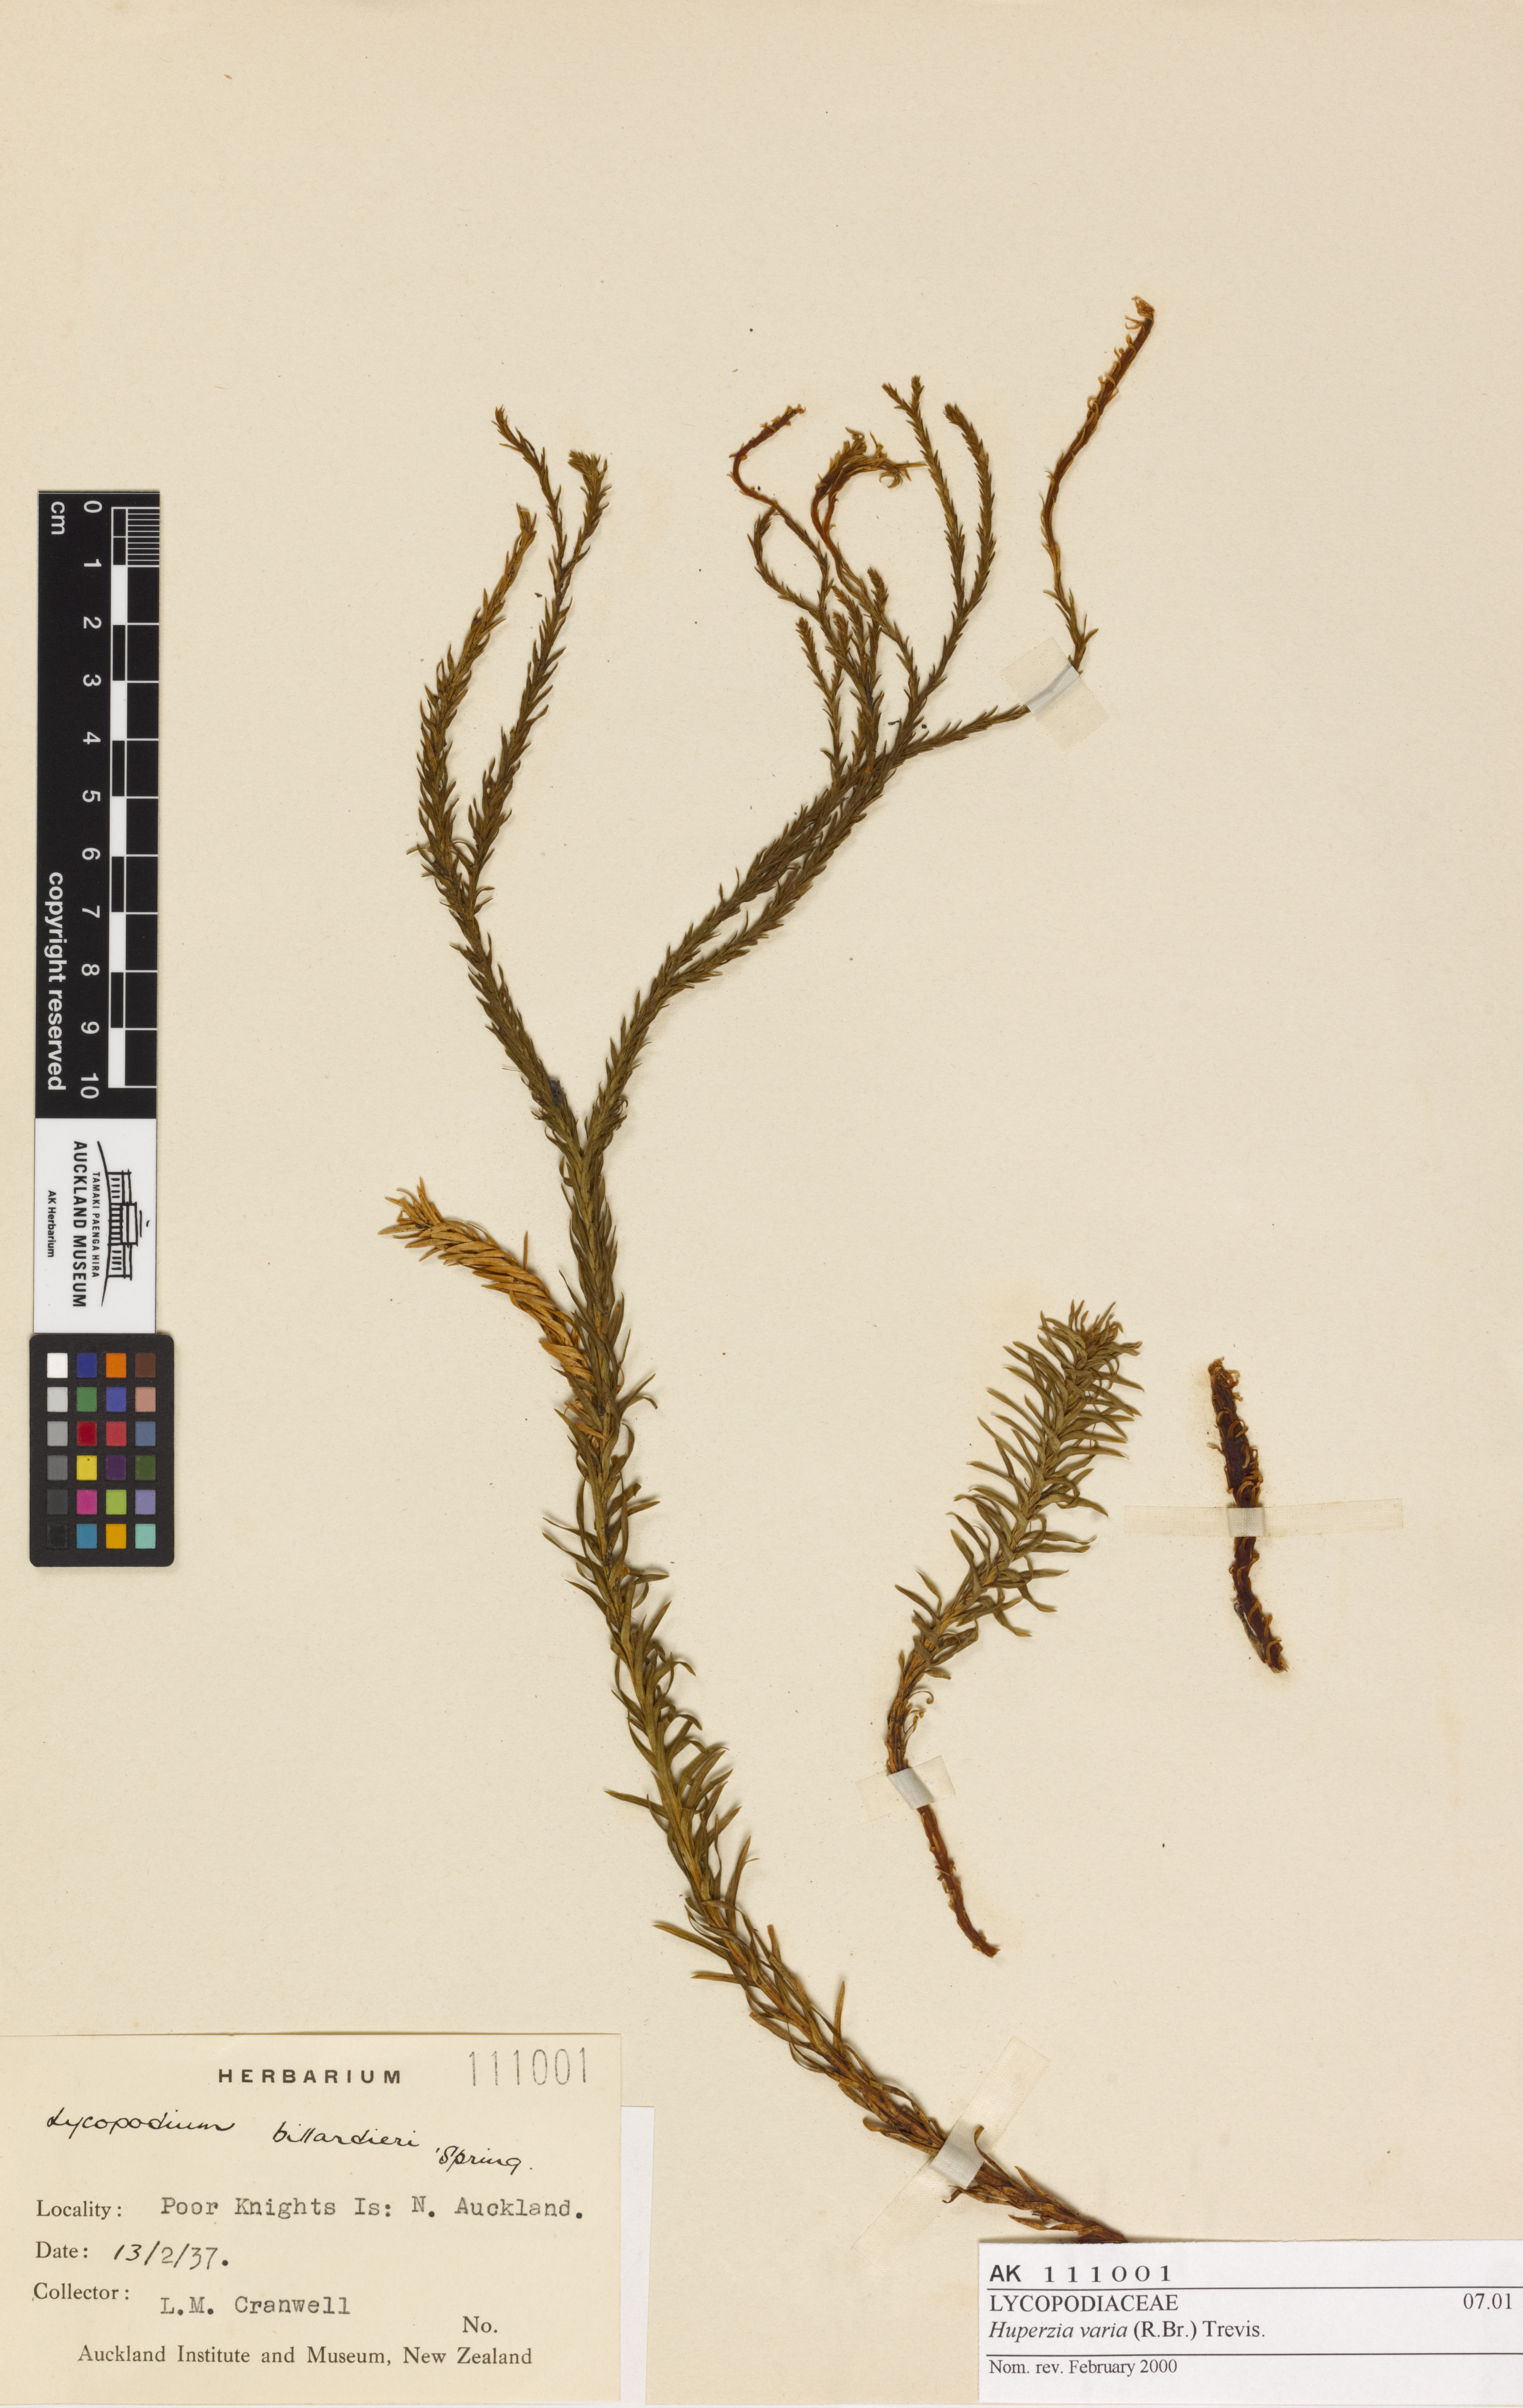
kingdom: Plantae
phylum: Tracheophyta
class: Lycopodiopsida
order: Lycopodiales
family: Lycopodiaceae
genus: Phlegmariurus
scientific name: Phlegmariurus billardierei
